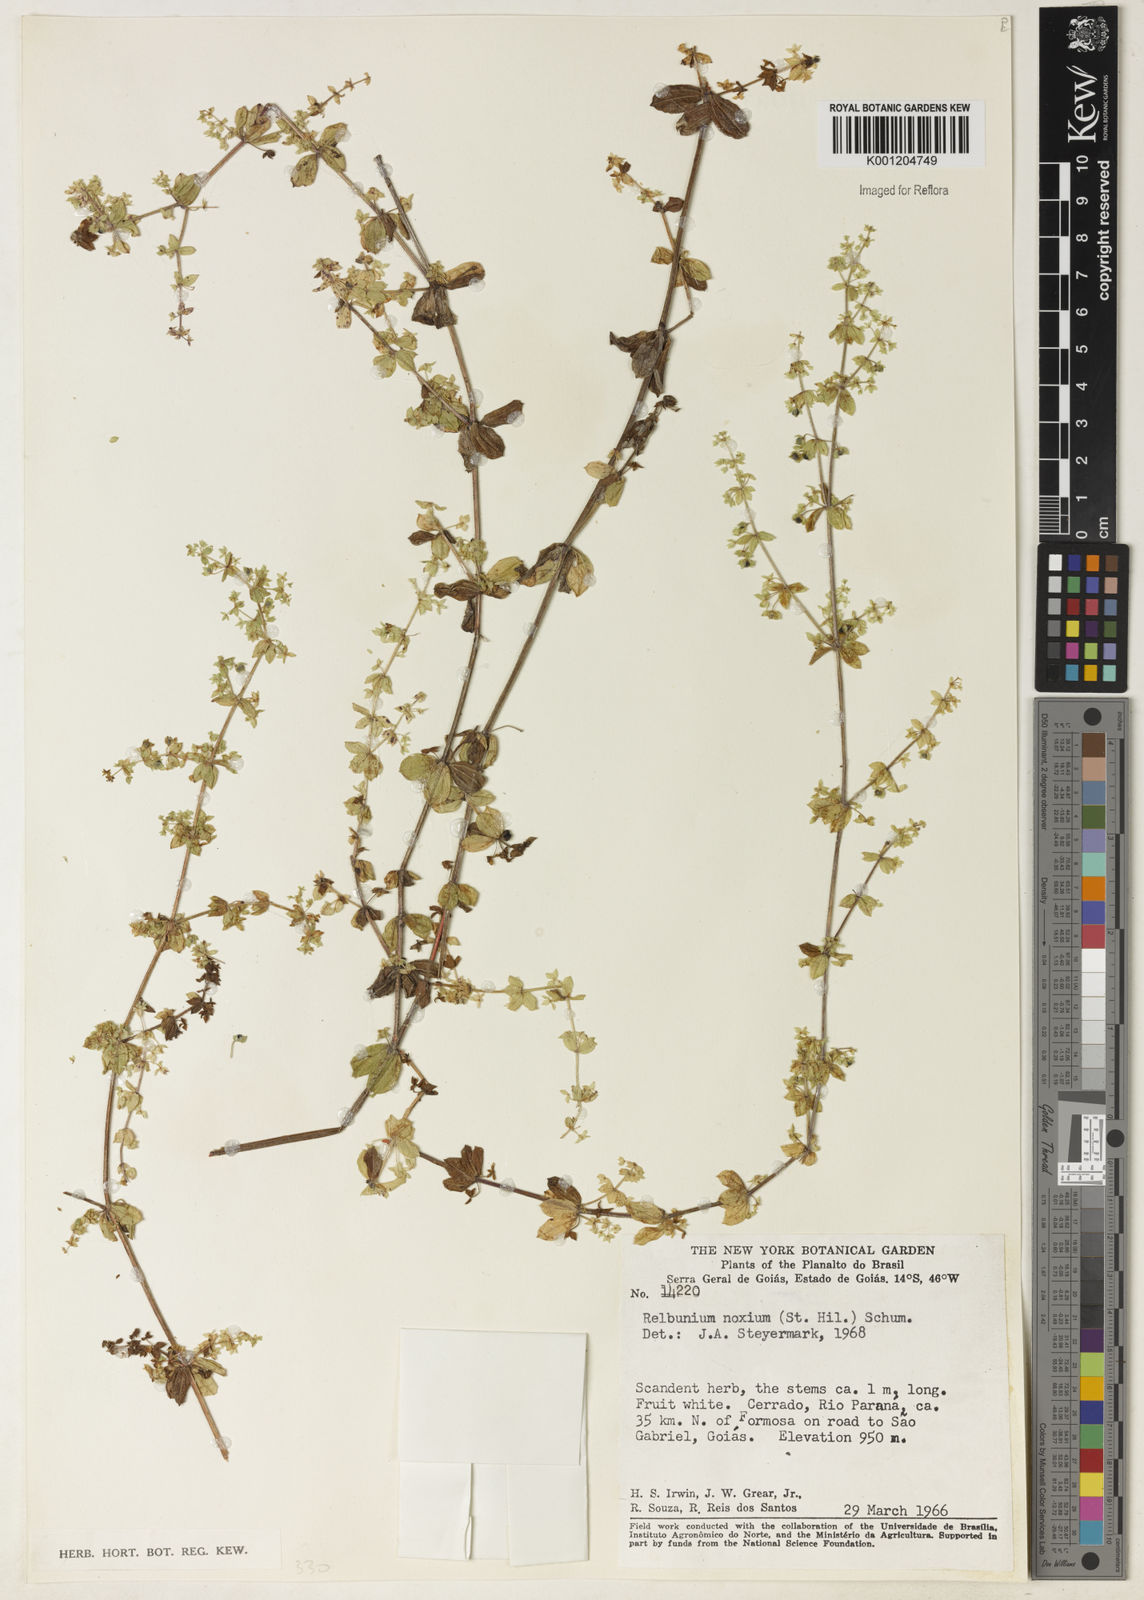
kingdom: Plantae
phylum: Tracheophyta
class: Magnoliopsida
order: Gentianales
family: Rubiaceae
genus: Galium
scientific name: Galium noxium
